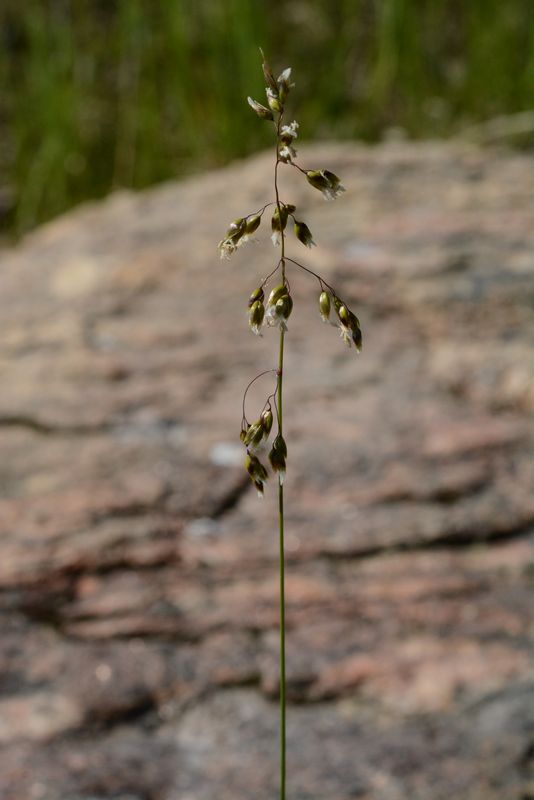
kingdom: Plantae
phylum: Tracheophyta
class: Liliopsida
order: Poales
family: Poaceae
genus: Anthoxanthum
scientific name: Anthoxanthum nitens
